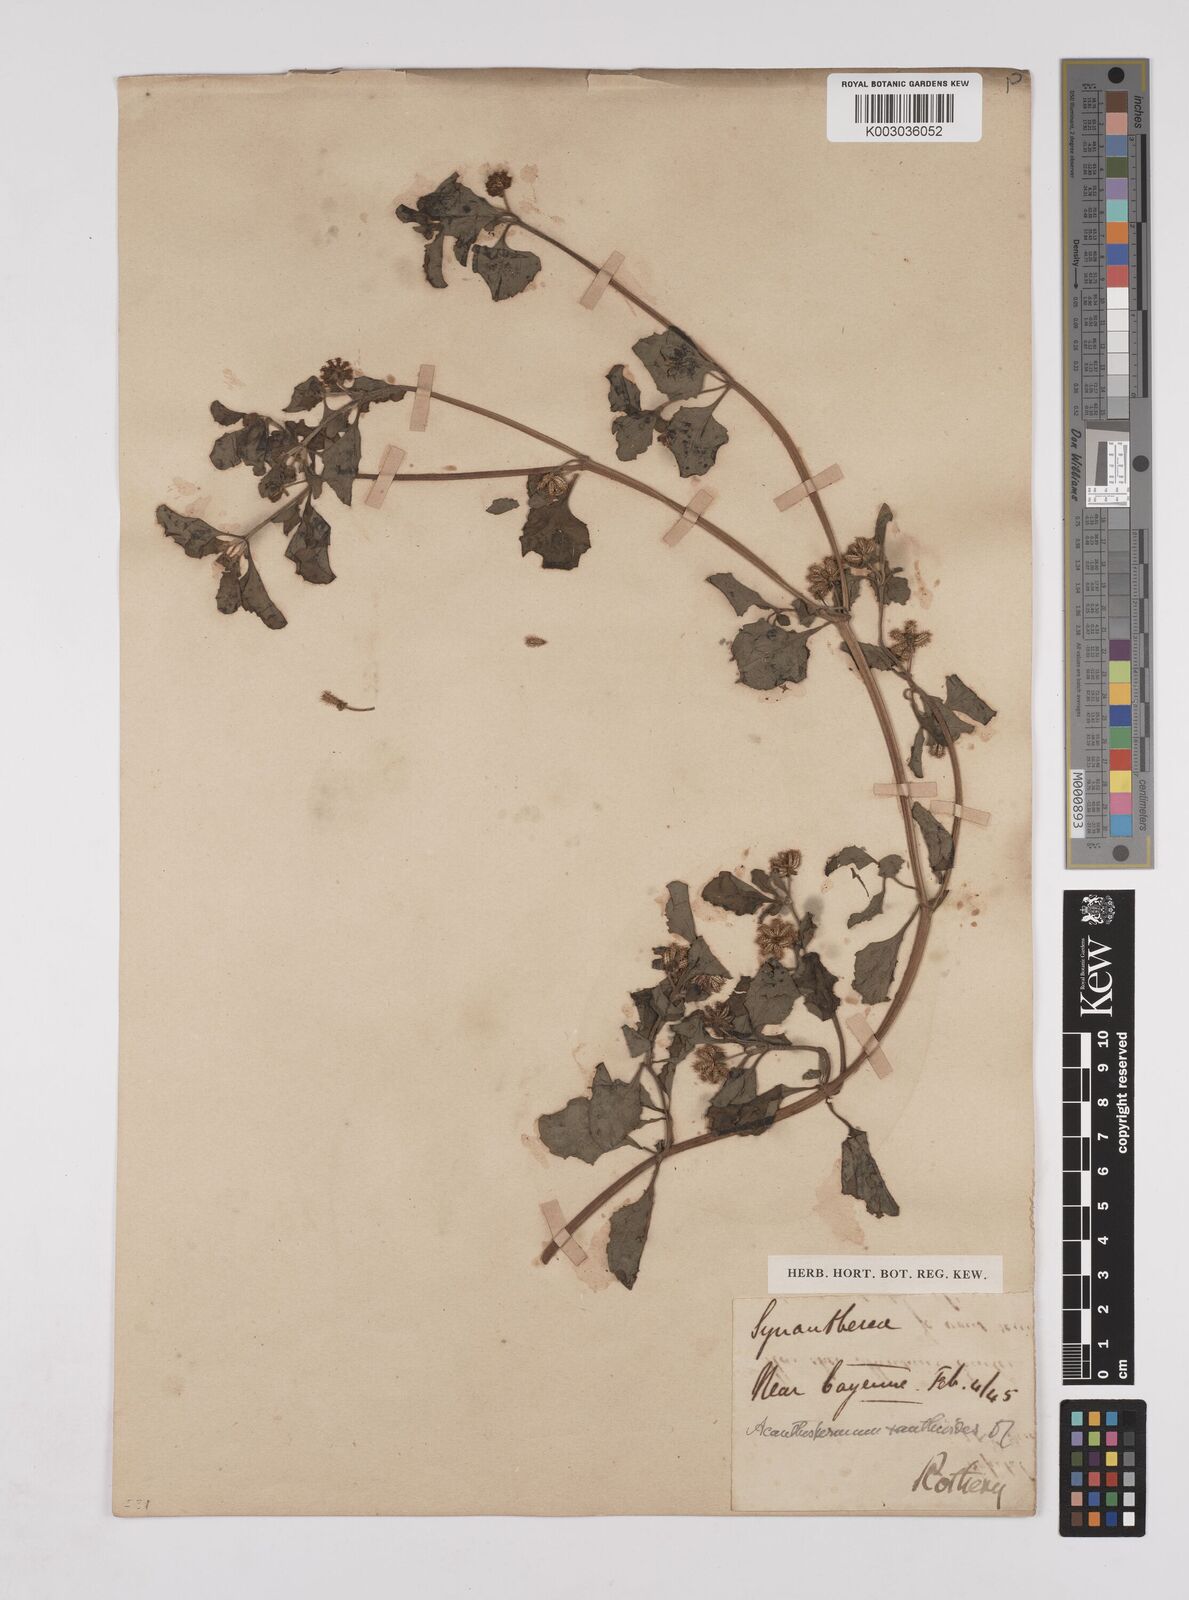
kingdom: Plantae
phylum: Tracheophyta
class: Magnoliopsida
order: Asterales
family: Asteraceae
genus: Acanthospermum
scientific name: Acanthospermum australe
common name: Paraguayan starbur
